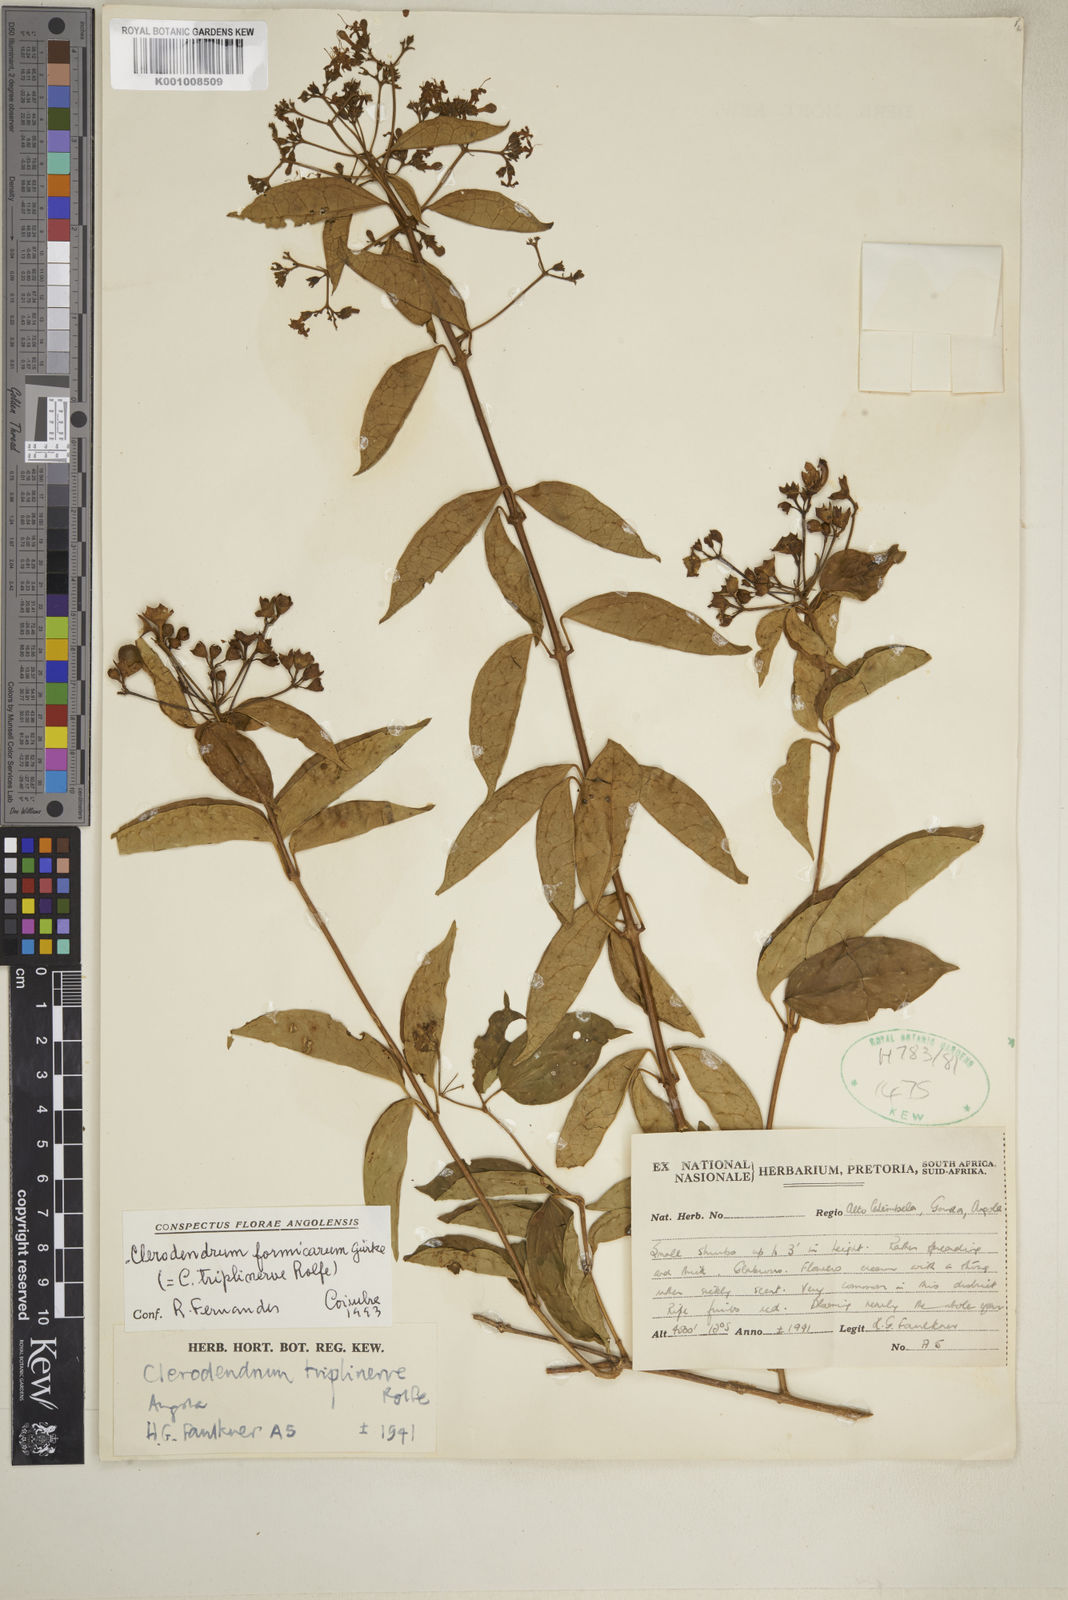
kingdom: Plantae
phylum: Tracheophyta
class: Magnoliopsida
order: Lamiales
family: Lamiaceae
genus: Clerodendrum
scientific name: Clerodendrum
